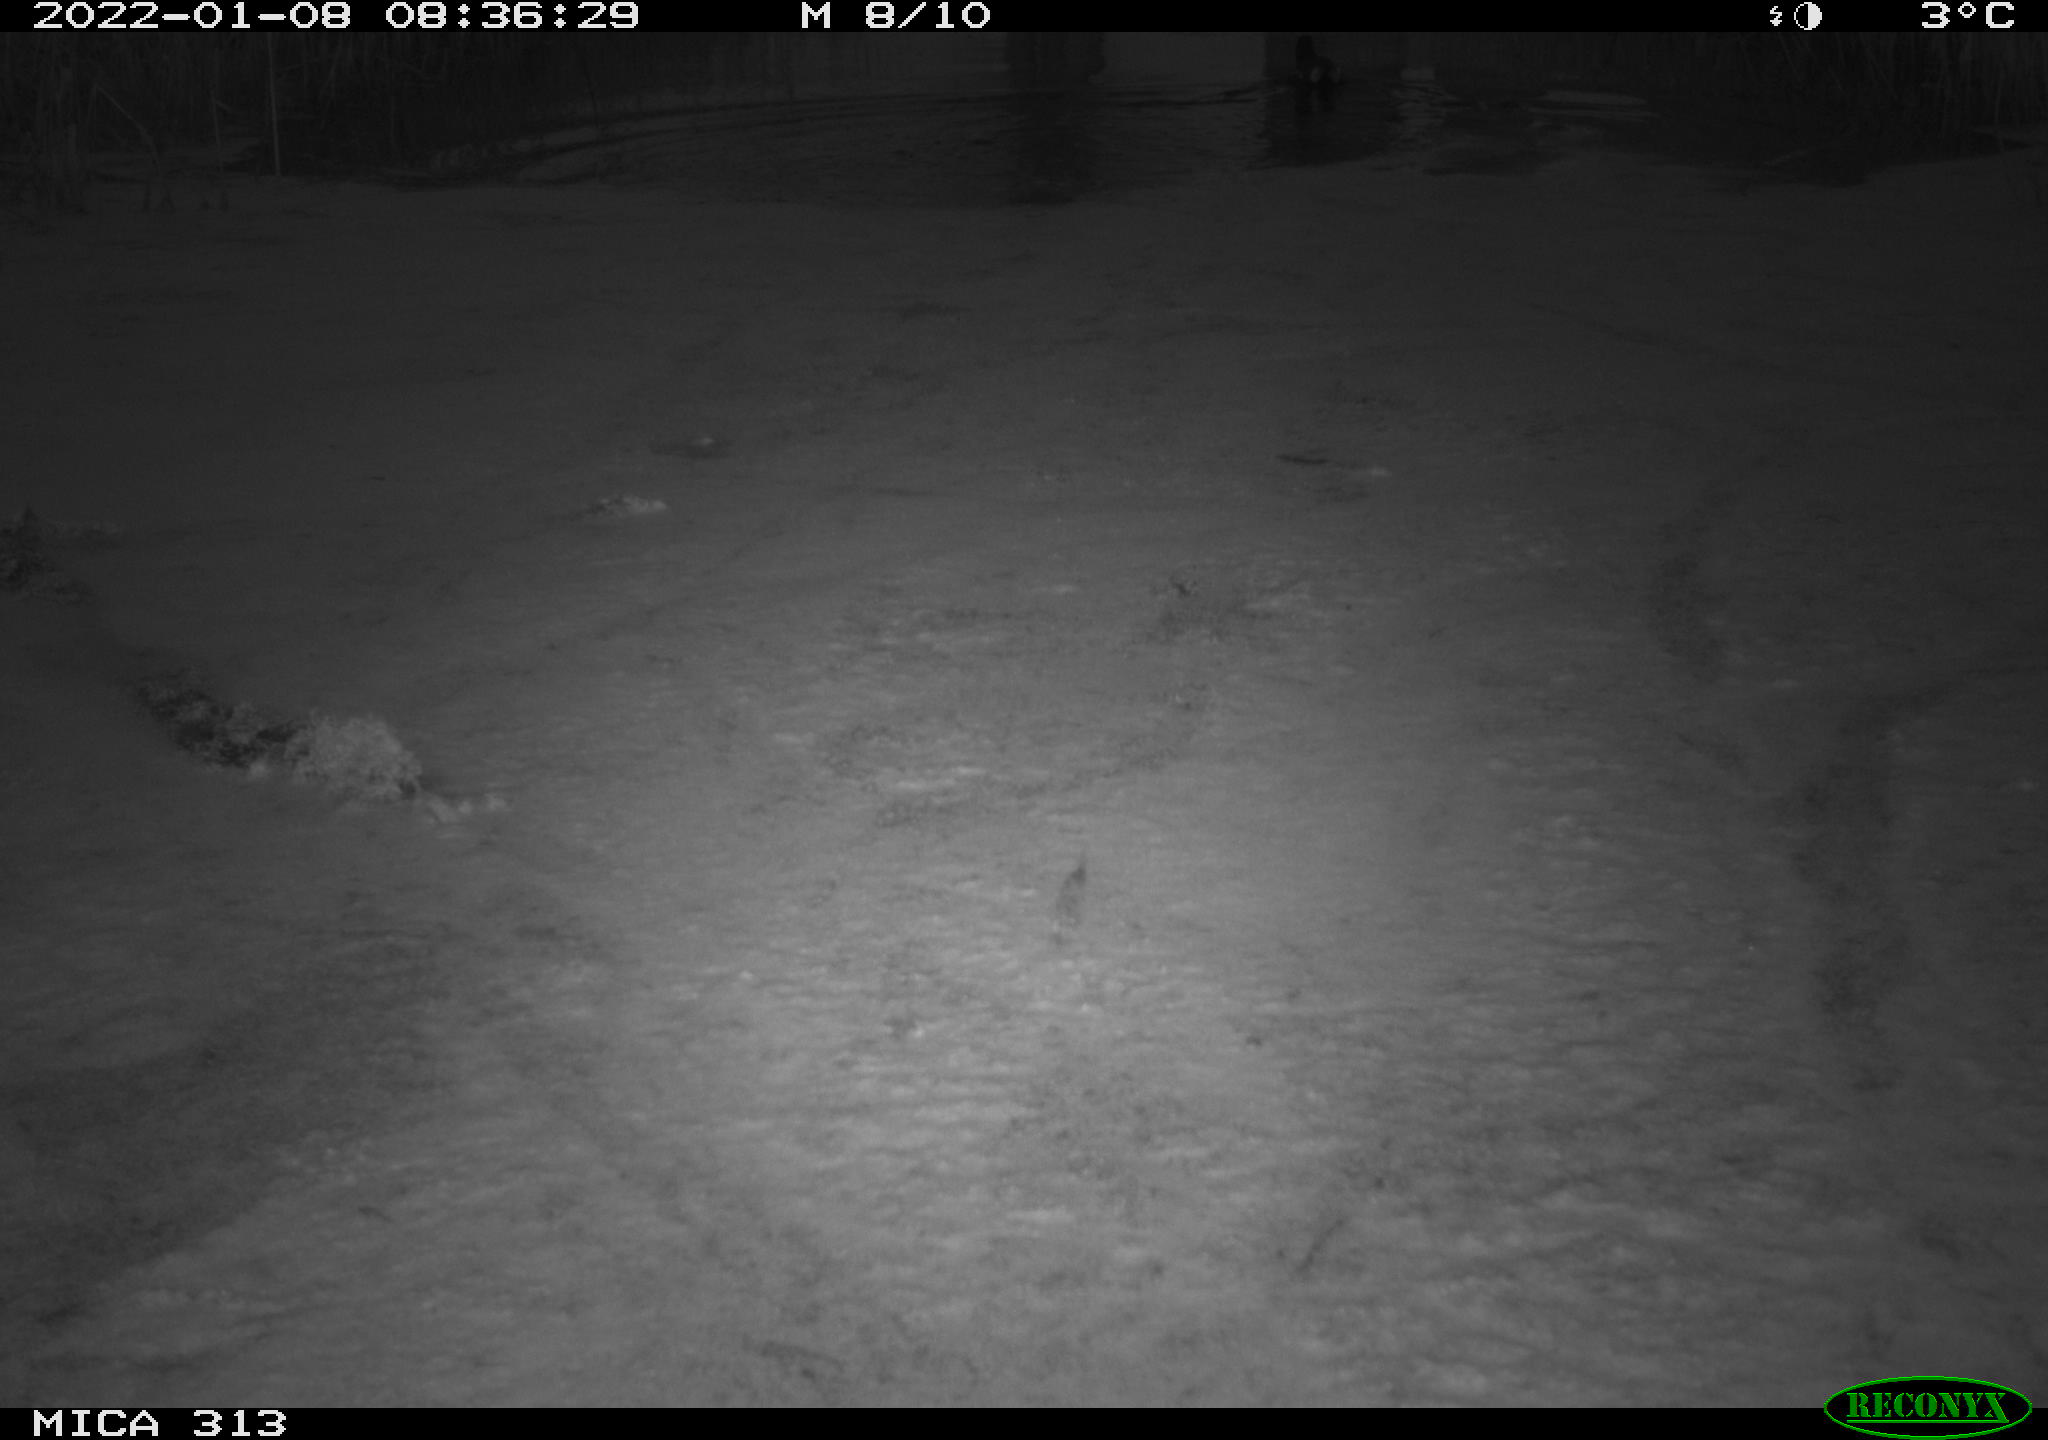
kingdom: Animalia
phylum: Chordata
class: Aves
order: Gruiformes
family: Rallidae
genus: Gallinula
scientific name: Gallinula chloropus
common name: Common moorhen
